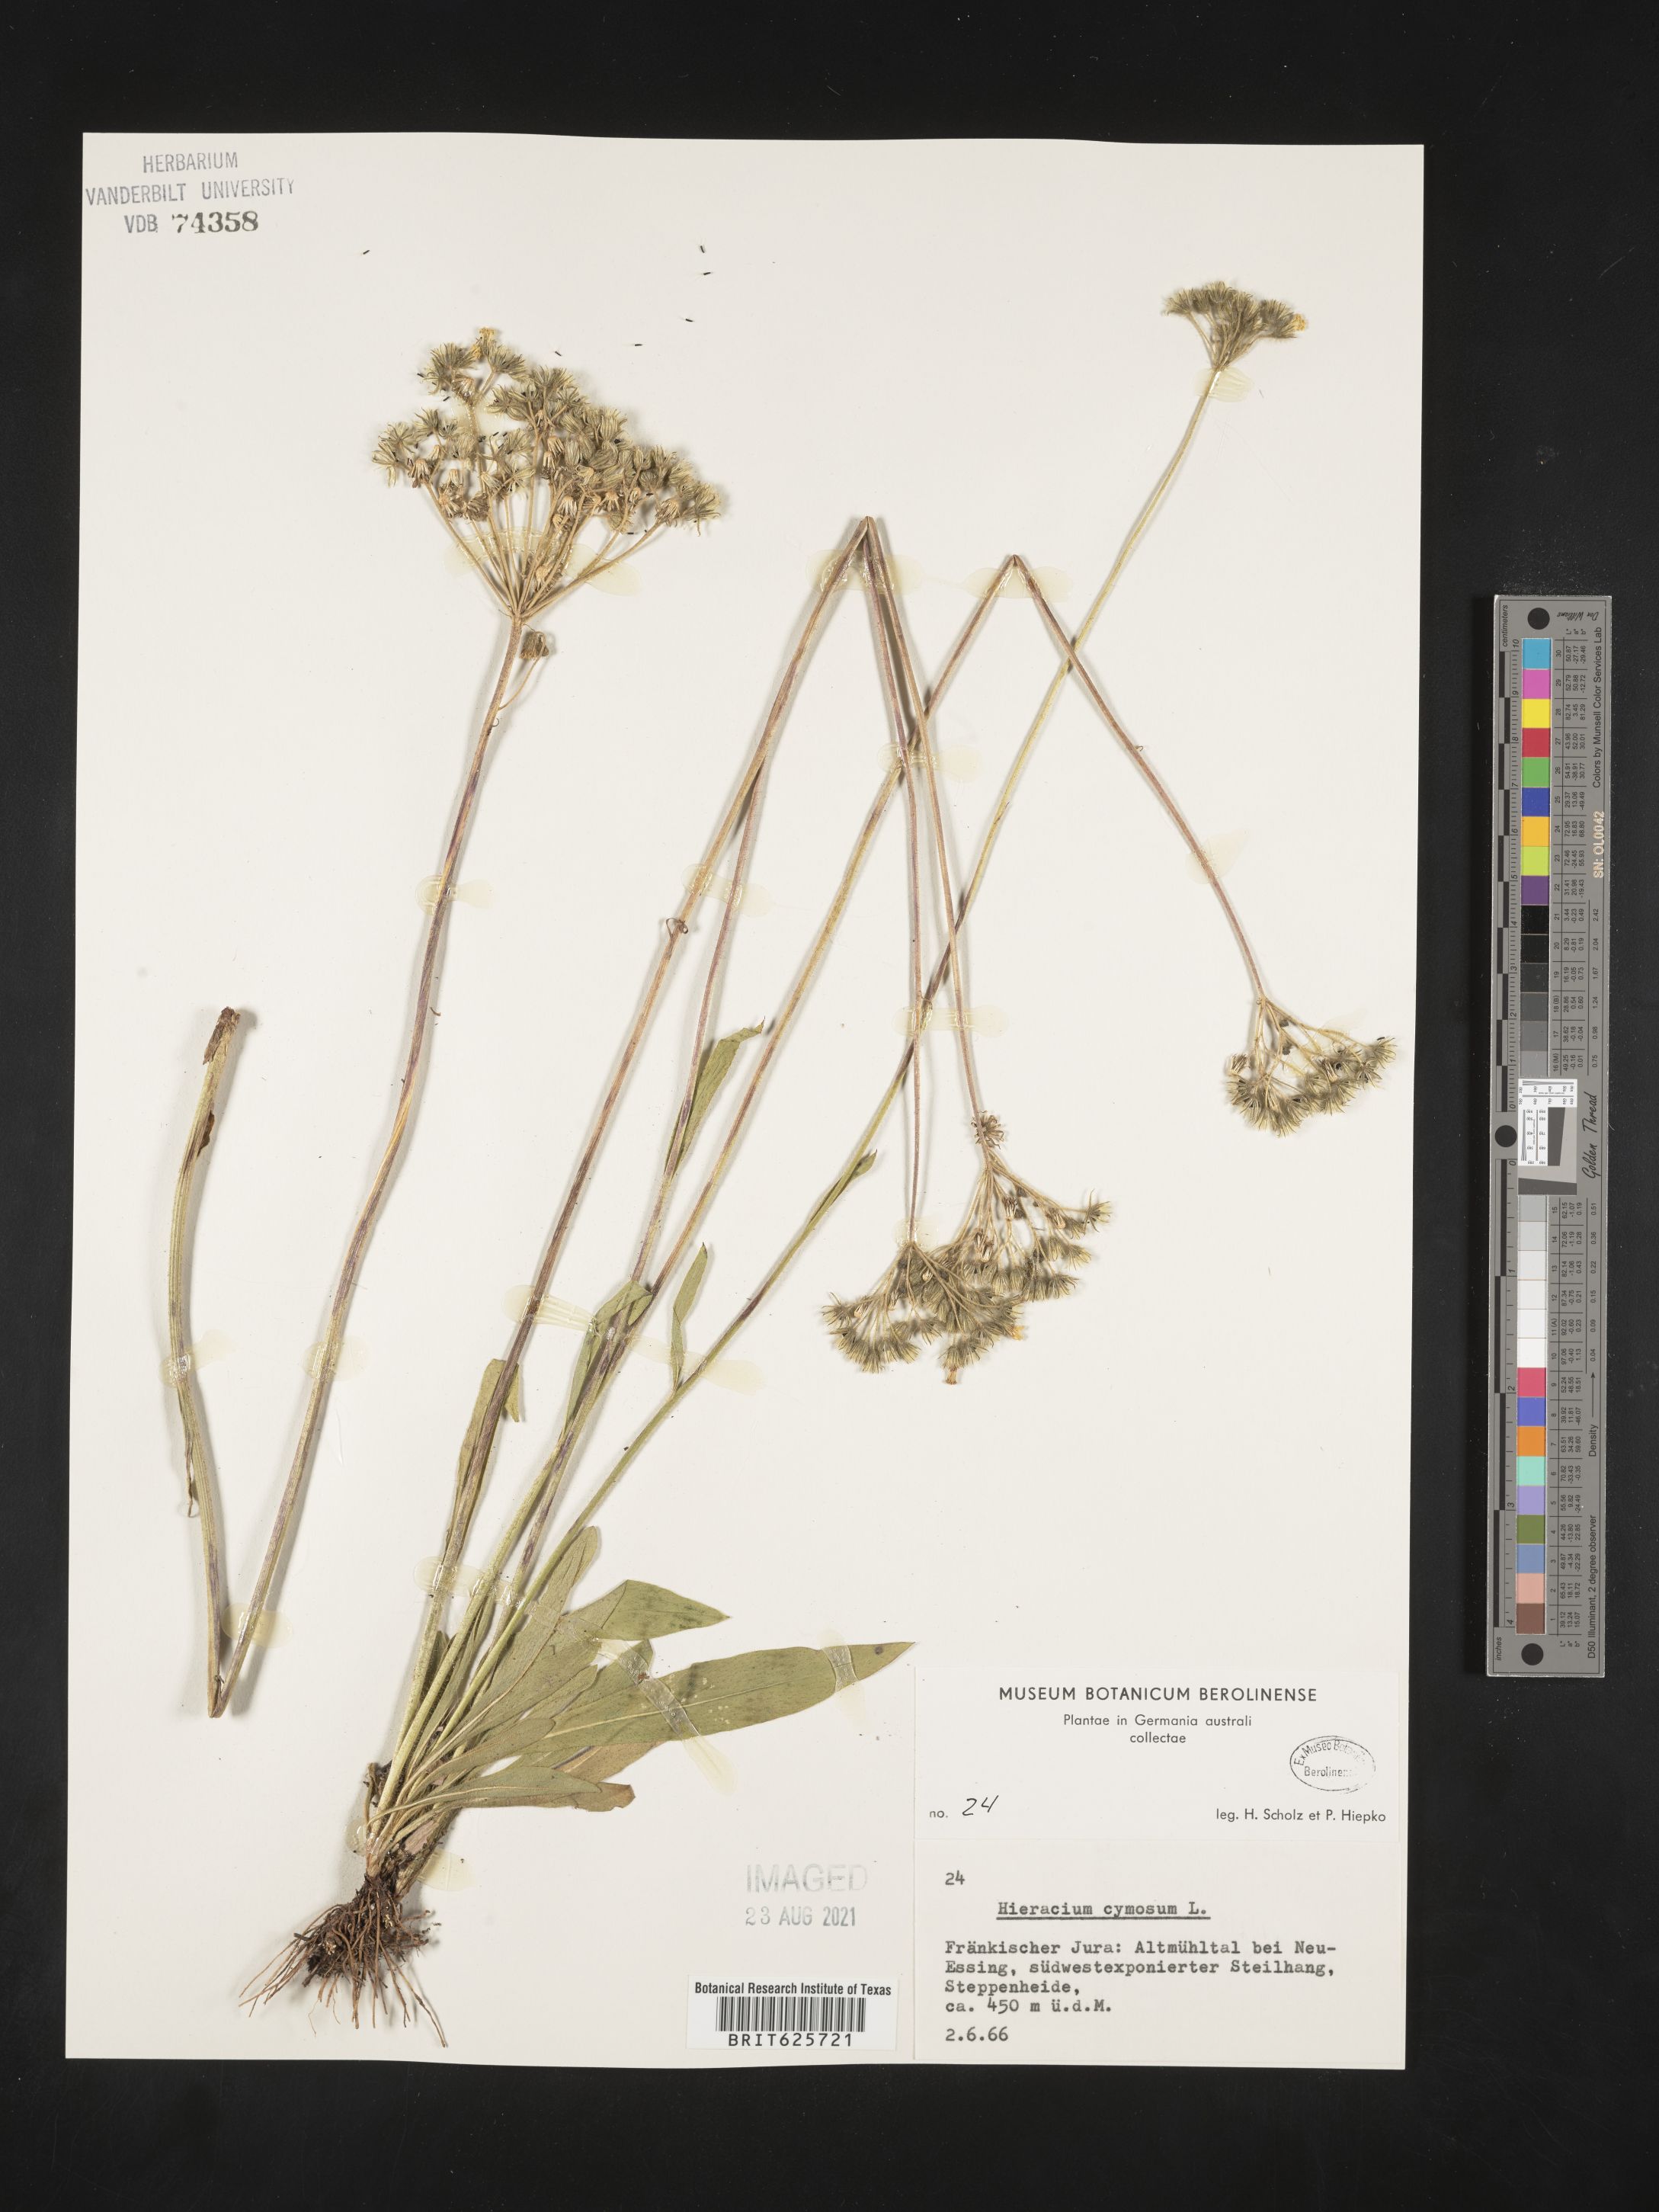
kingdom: Plantae
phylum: Tracheophyta
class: Magnoliopsida
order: Asterales
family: Asteraceae
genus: Pilosella
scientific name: Pilosella cymosa
